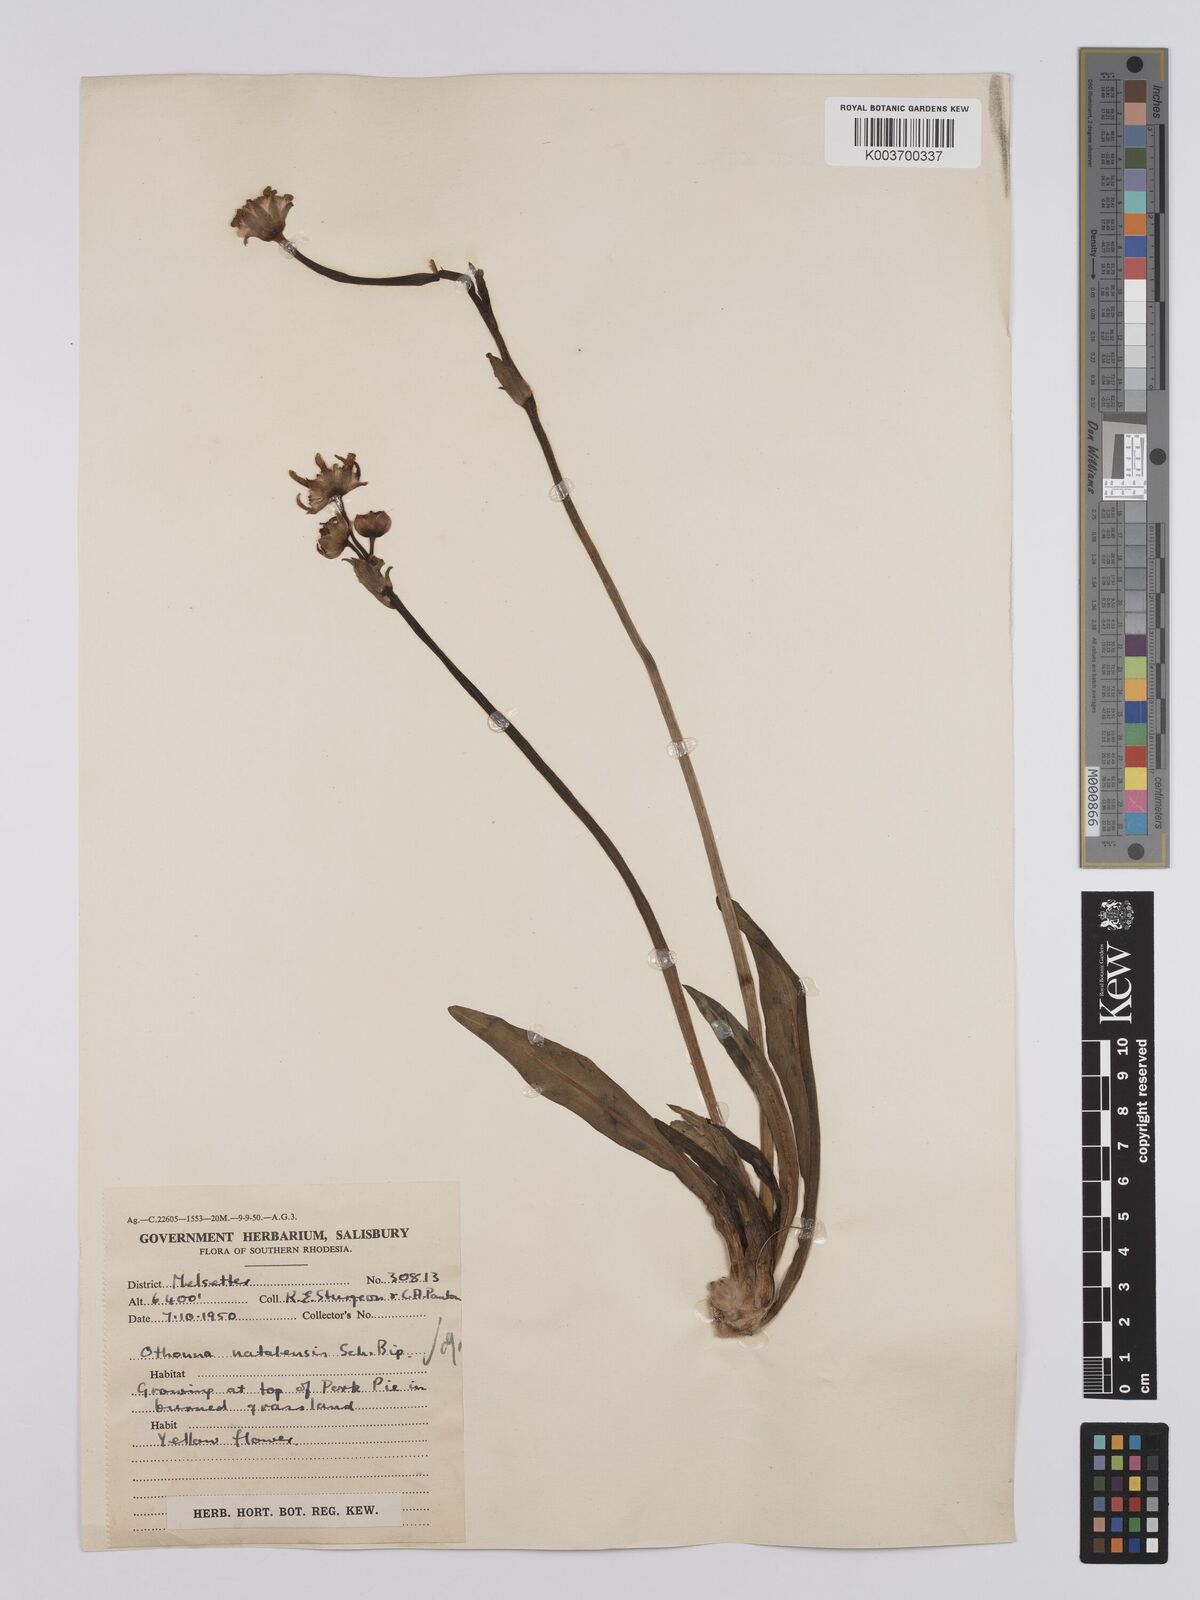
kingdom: Plantae
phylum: Tracheophyta
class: Magnoliopsida
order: Asterales
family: Asteraceae
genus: Othonna
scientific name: Othonna natalensis
